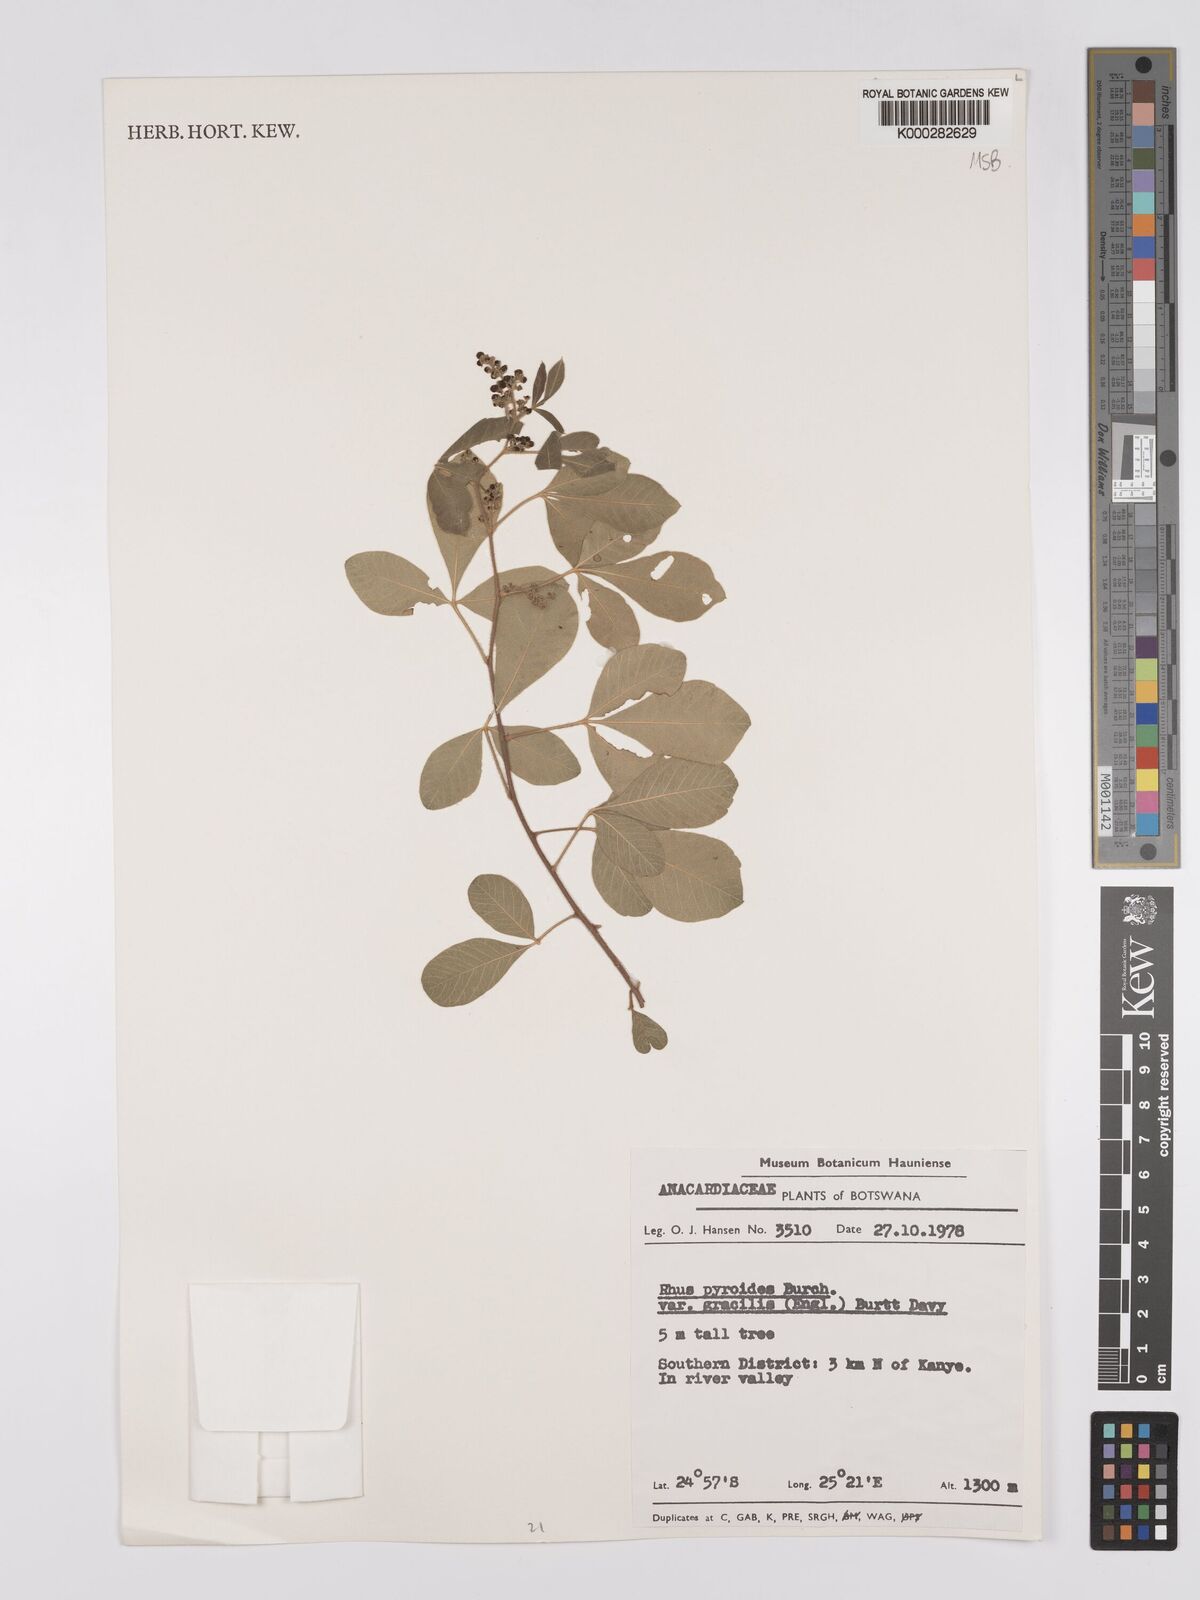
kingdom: Plantae
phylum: Tracheophyta
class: Magnoliopsida
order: Sapindales
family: Anacardiaceae
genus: Searsia
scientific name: Searsia pyroides
